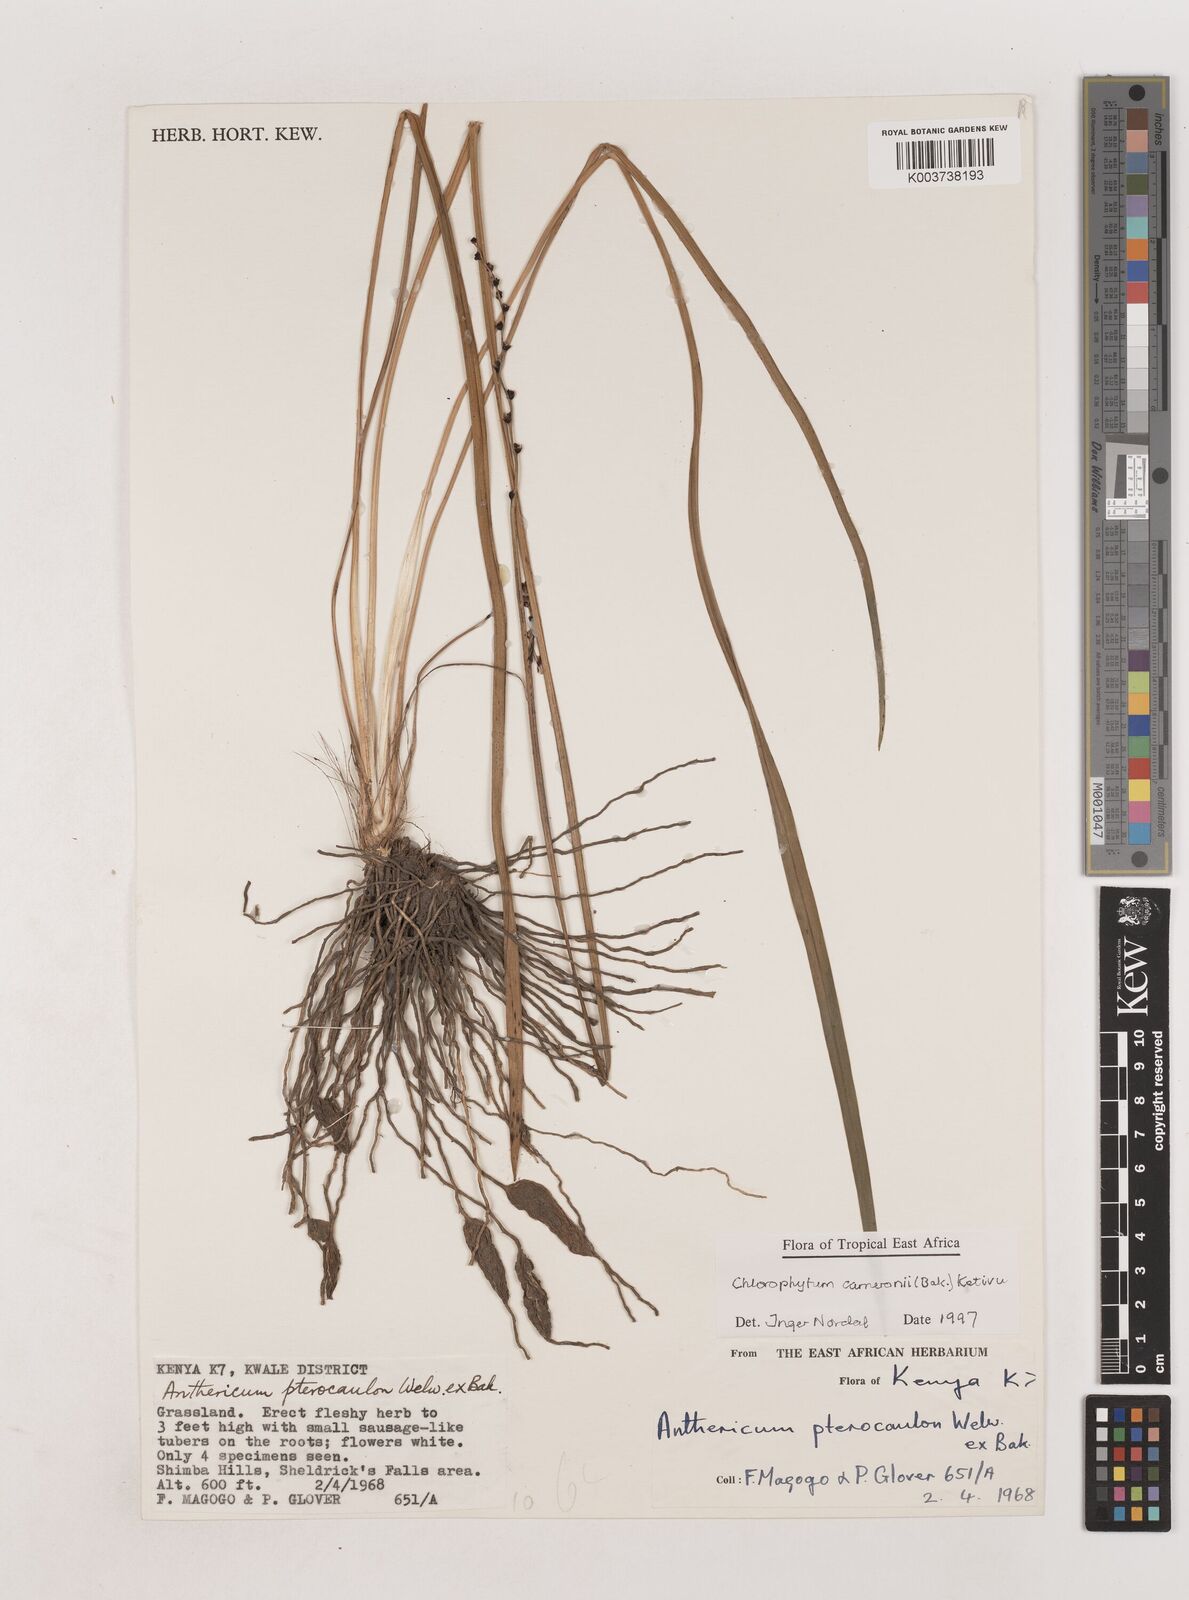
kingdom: Plantae
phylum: Tracheophyta
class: Liliopsida
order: Asparagales
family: Asparagaceae
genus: Chlorophytum
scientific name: Chlorophytum cameronii
